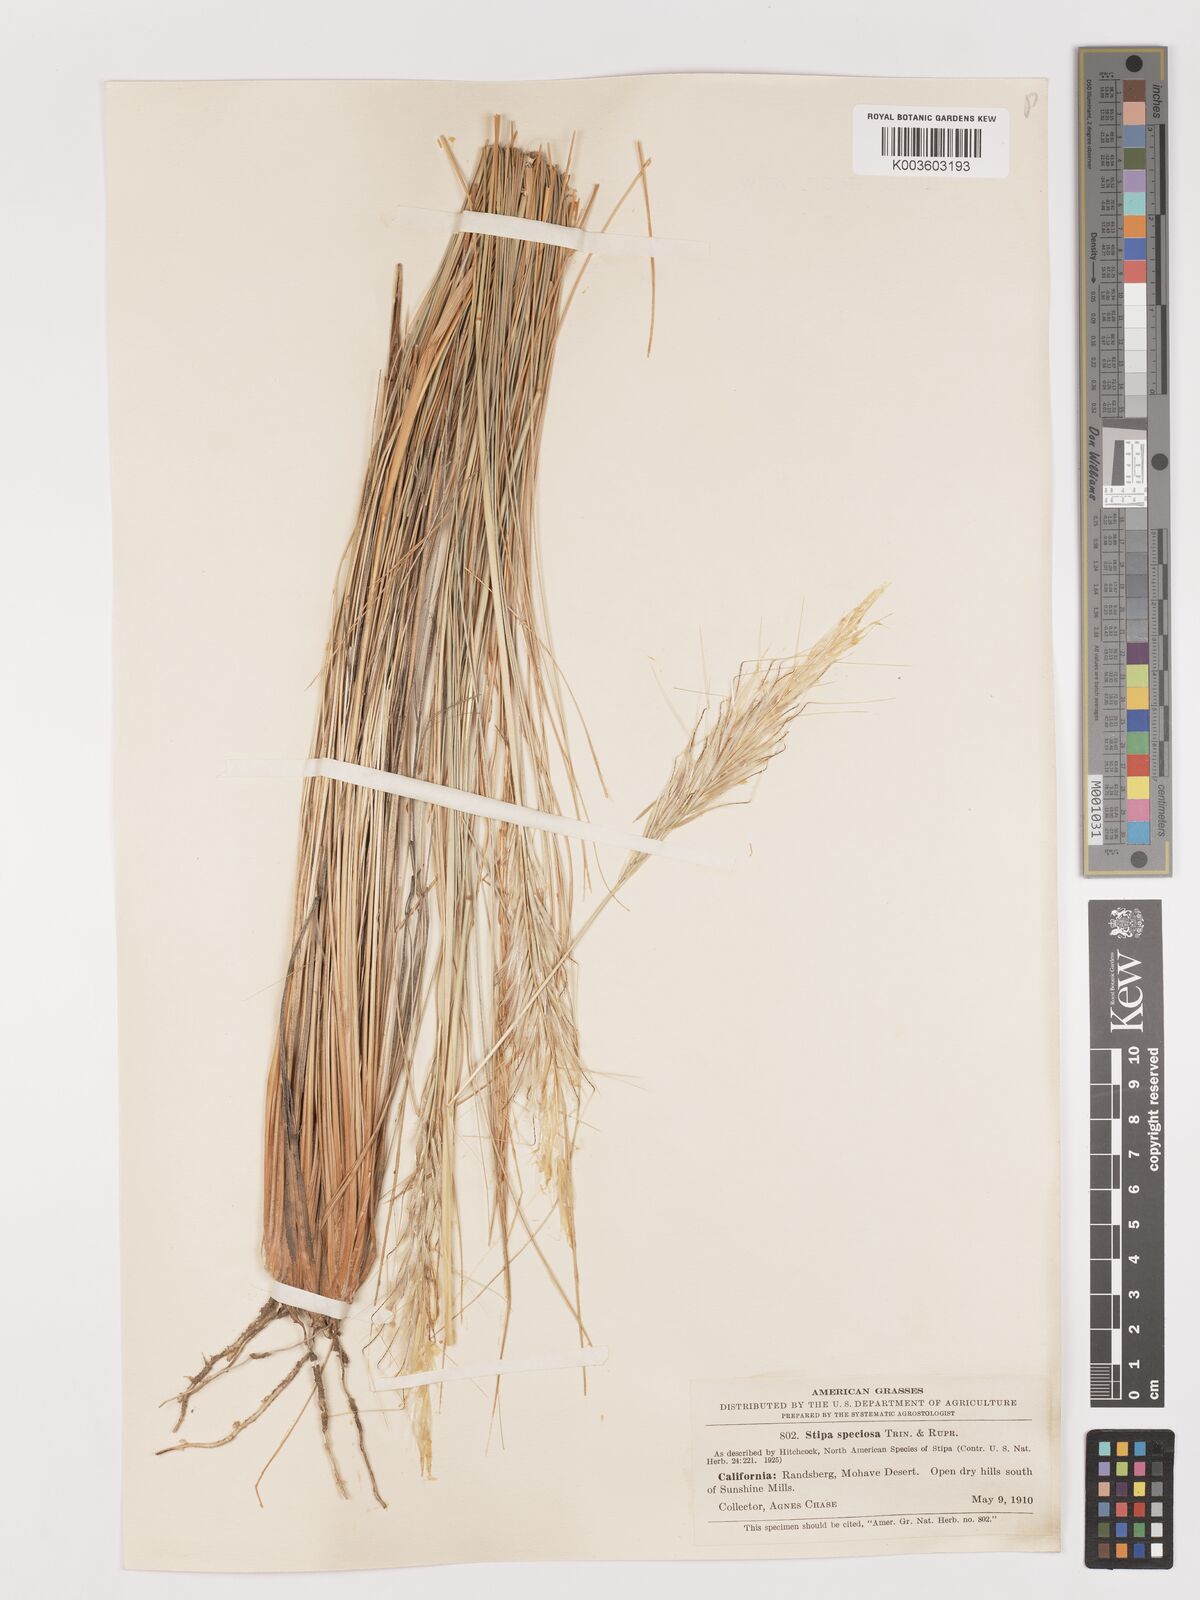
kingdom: Plantae
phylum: Tracheophyta
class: Liliopsida
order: Poales
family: Poaceae
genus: Pappostipa
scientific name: Pappostipa speciosa
